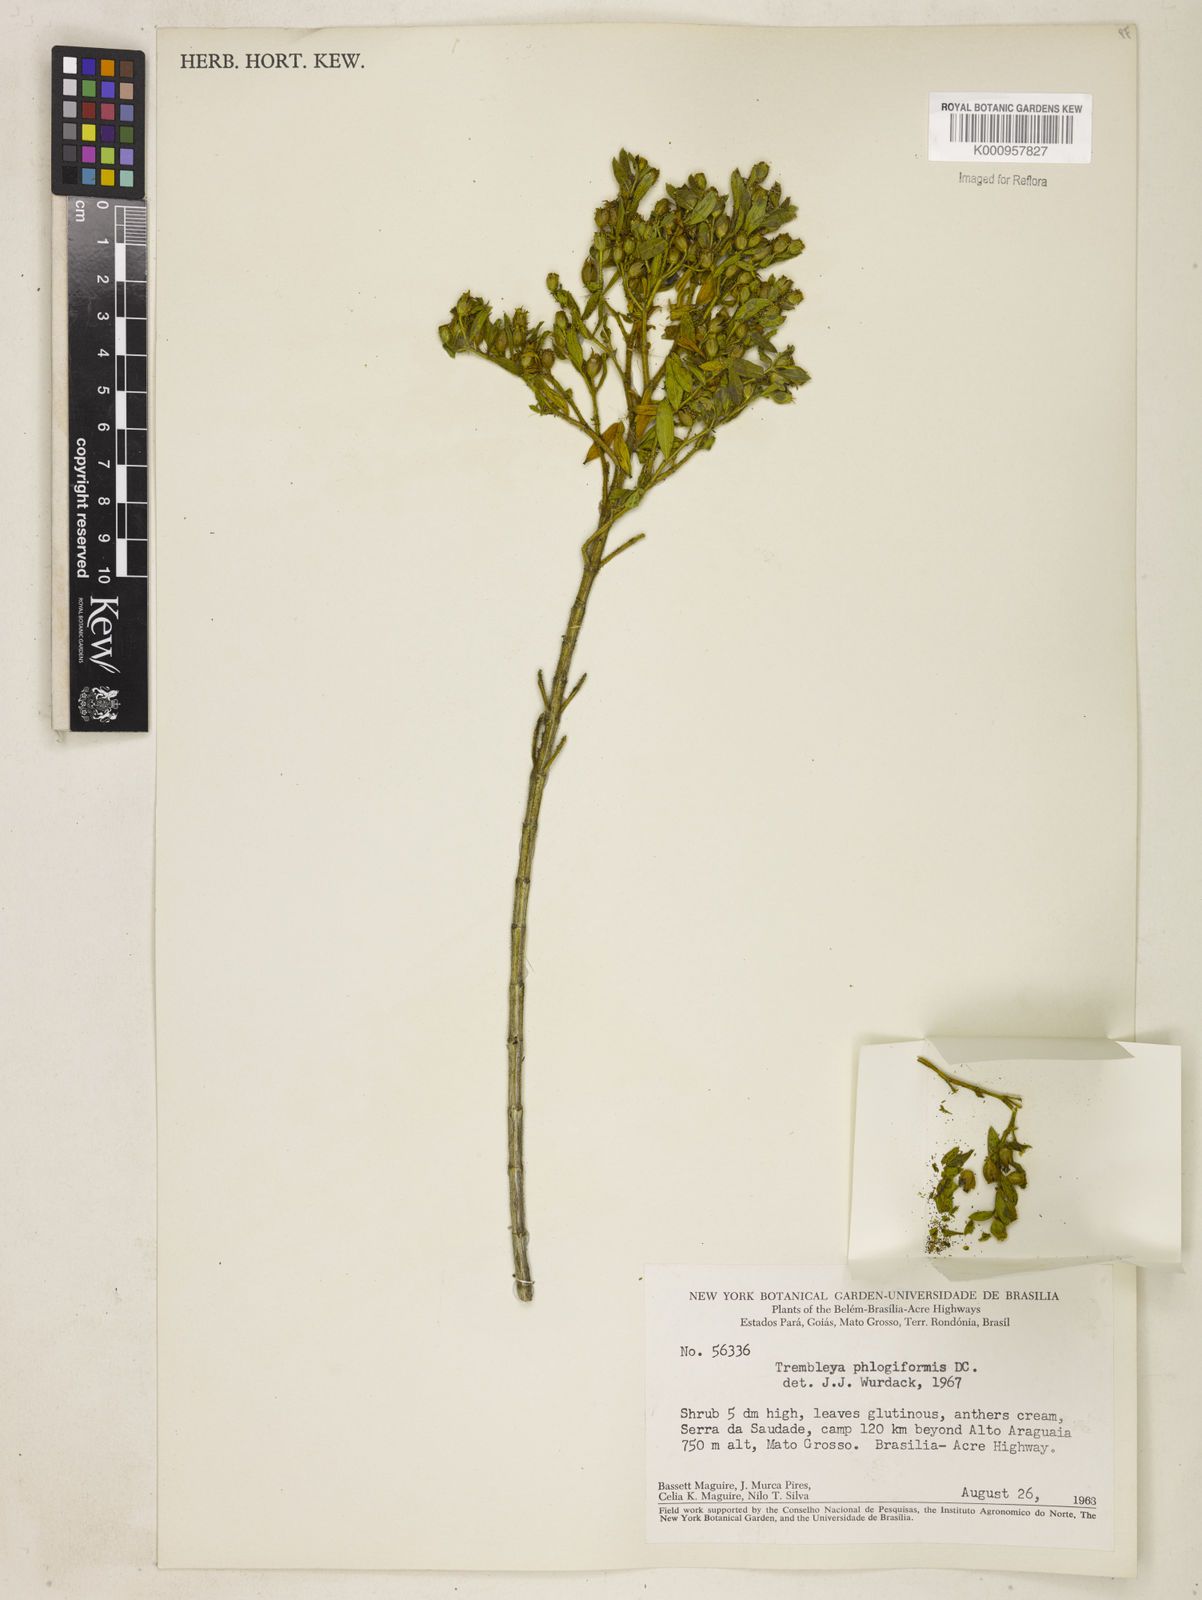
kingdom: Plantae
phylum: Tracheophyta
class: Magnoliopsida
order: Myrtales
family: Melastomataceae
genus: Microlicia
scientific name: Microlicia phlogiformis
